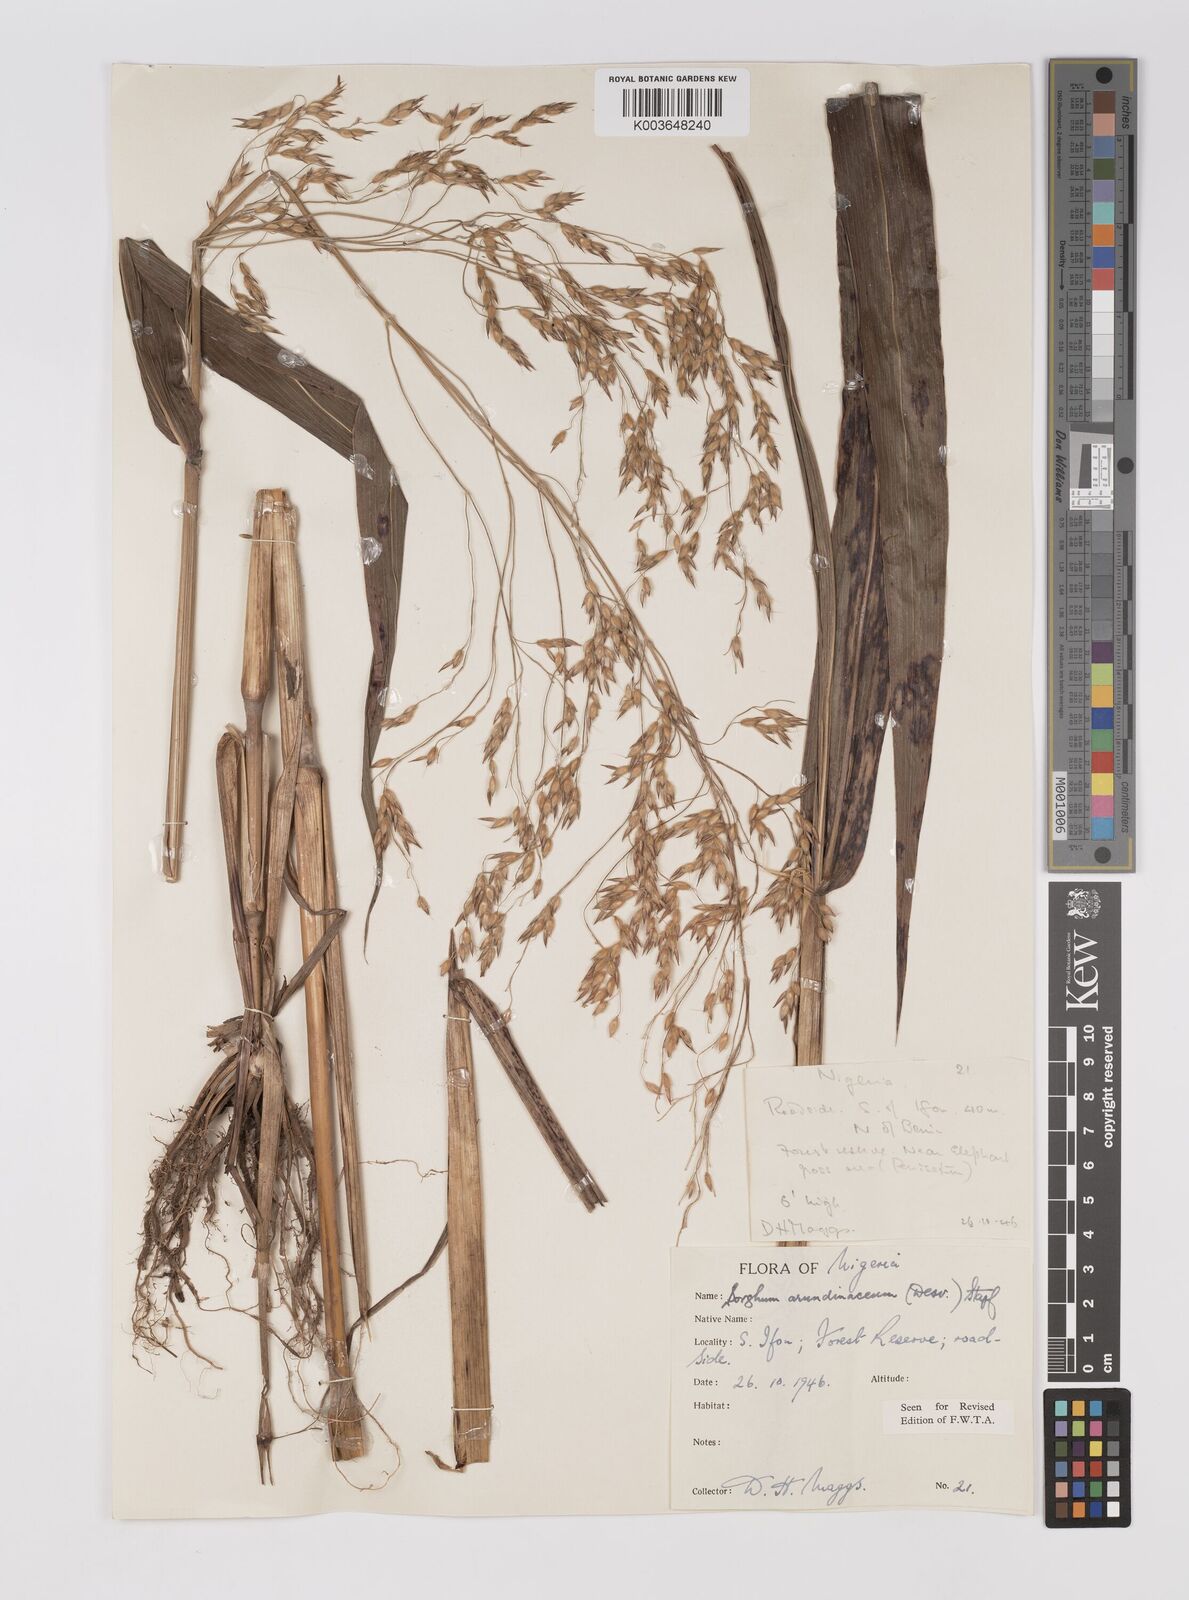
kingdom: Plantae
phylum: Tracheophyta
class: Liliopsida
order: Poales
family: Poaceae
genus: Sorghum
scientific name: Sorghum arundinaceum
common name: Sorghum
